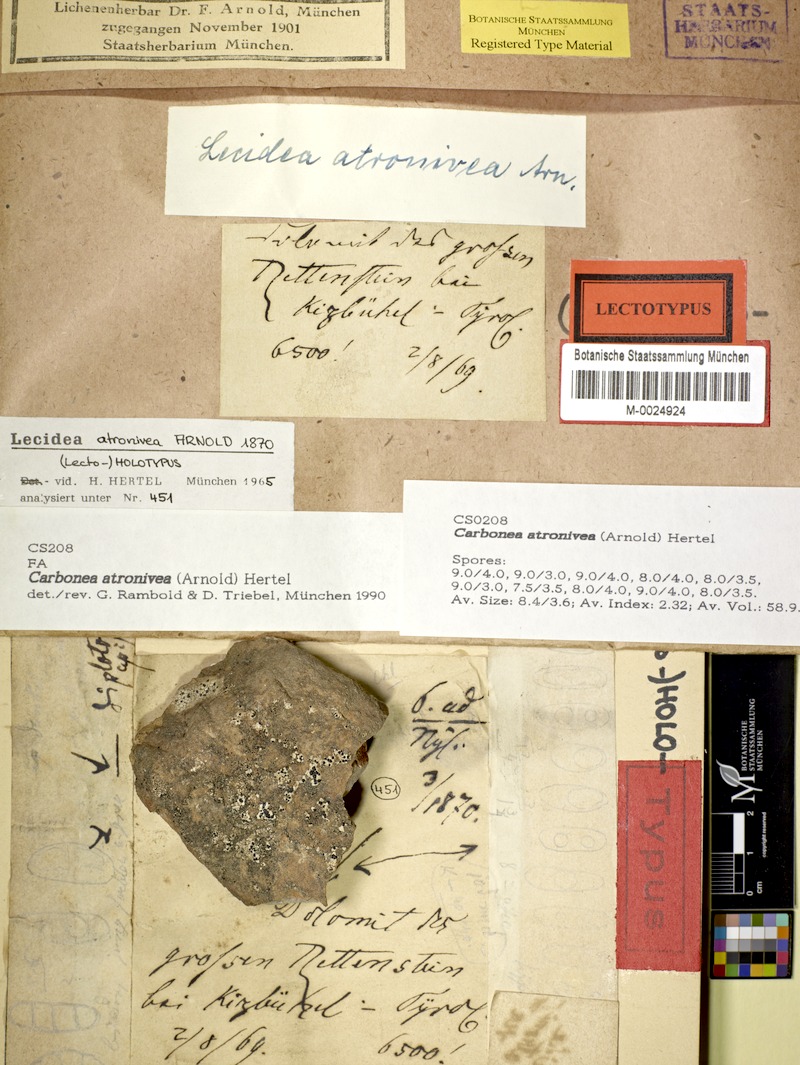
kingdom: Fungi
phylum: Ascomycota
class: Lecanoromycetes
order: Lecanorales
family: Lecanoraceae
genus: Carbonea
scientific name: Carbonea atronivea
